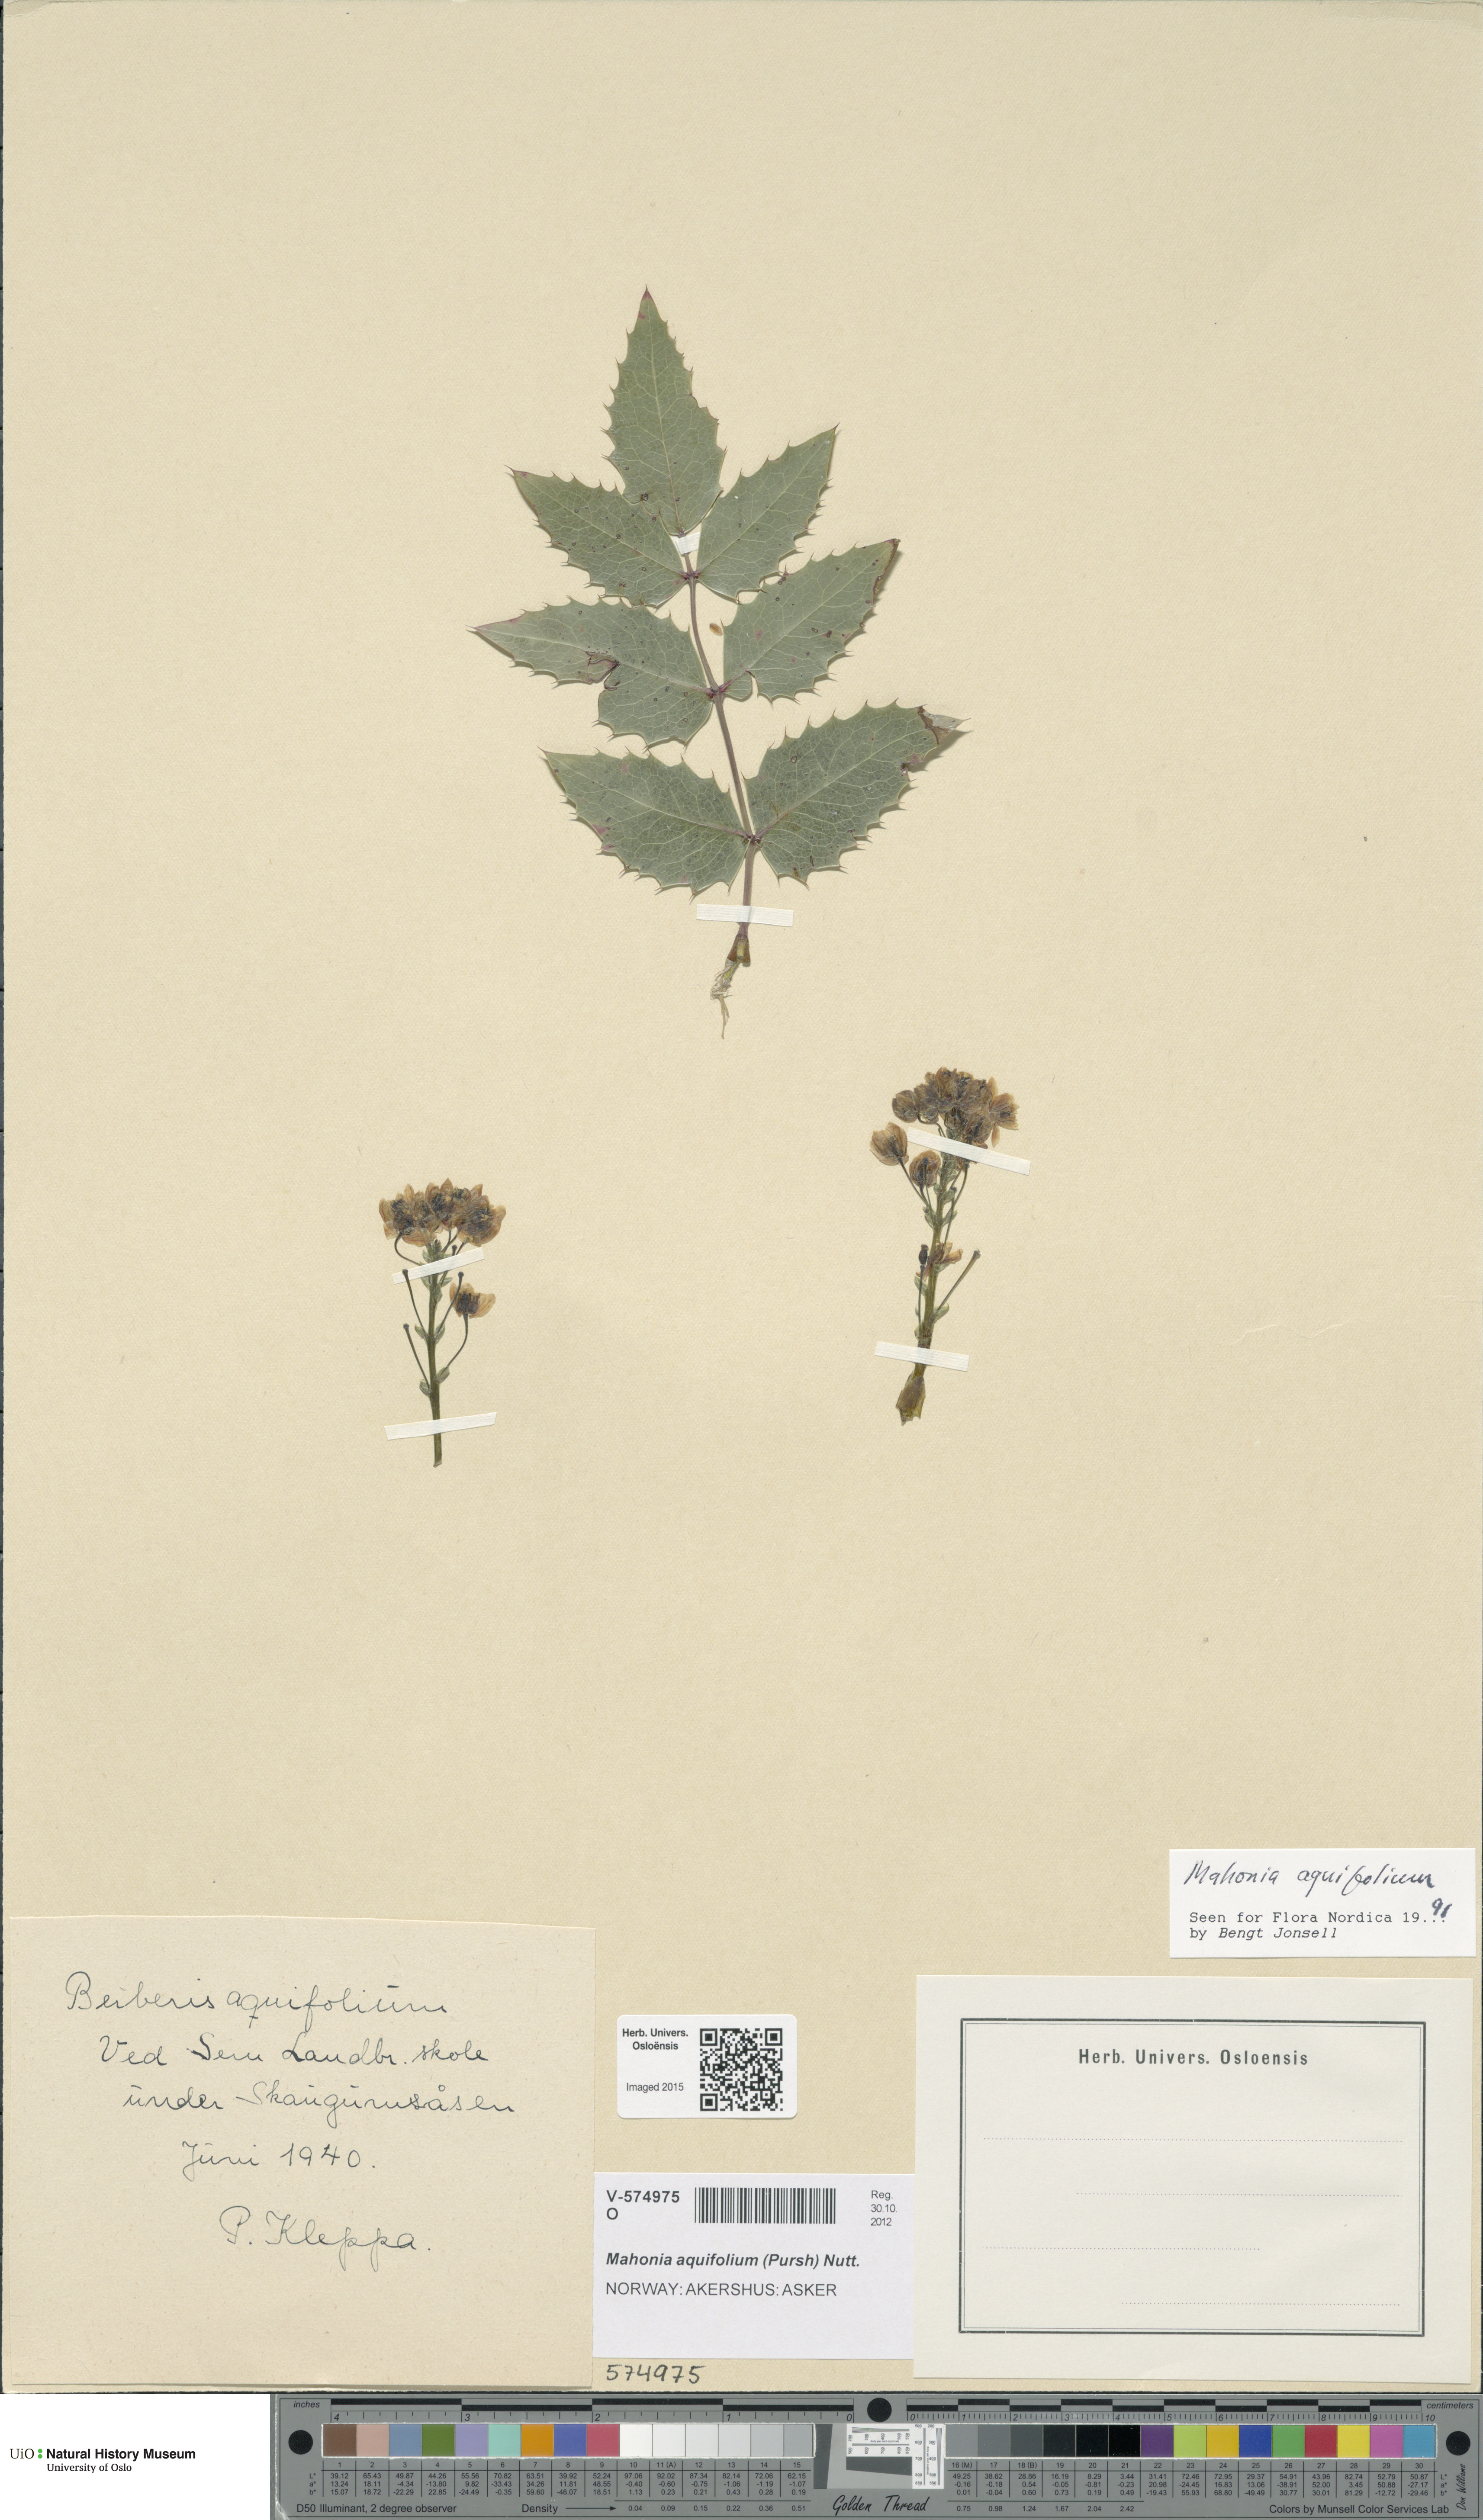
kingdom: Plantae
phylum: Tracheophyta
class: Magnoliopsida
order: Ranunculales
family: Berberidaceae
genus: Mahonia
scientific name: Mahonia aquifolium
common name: Oregon-grape
